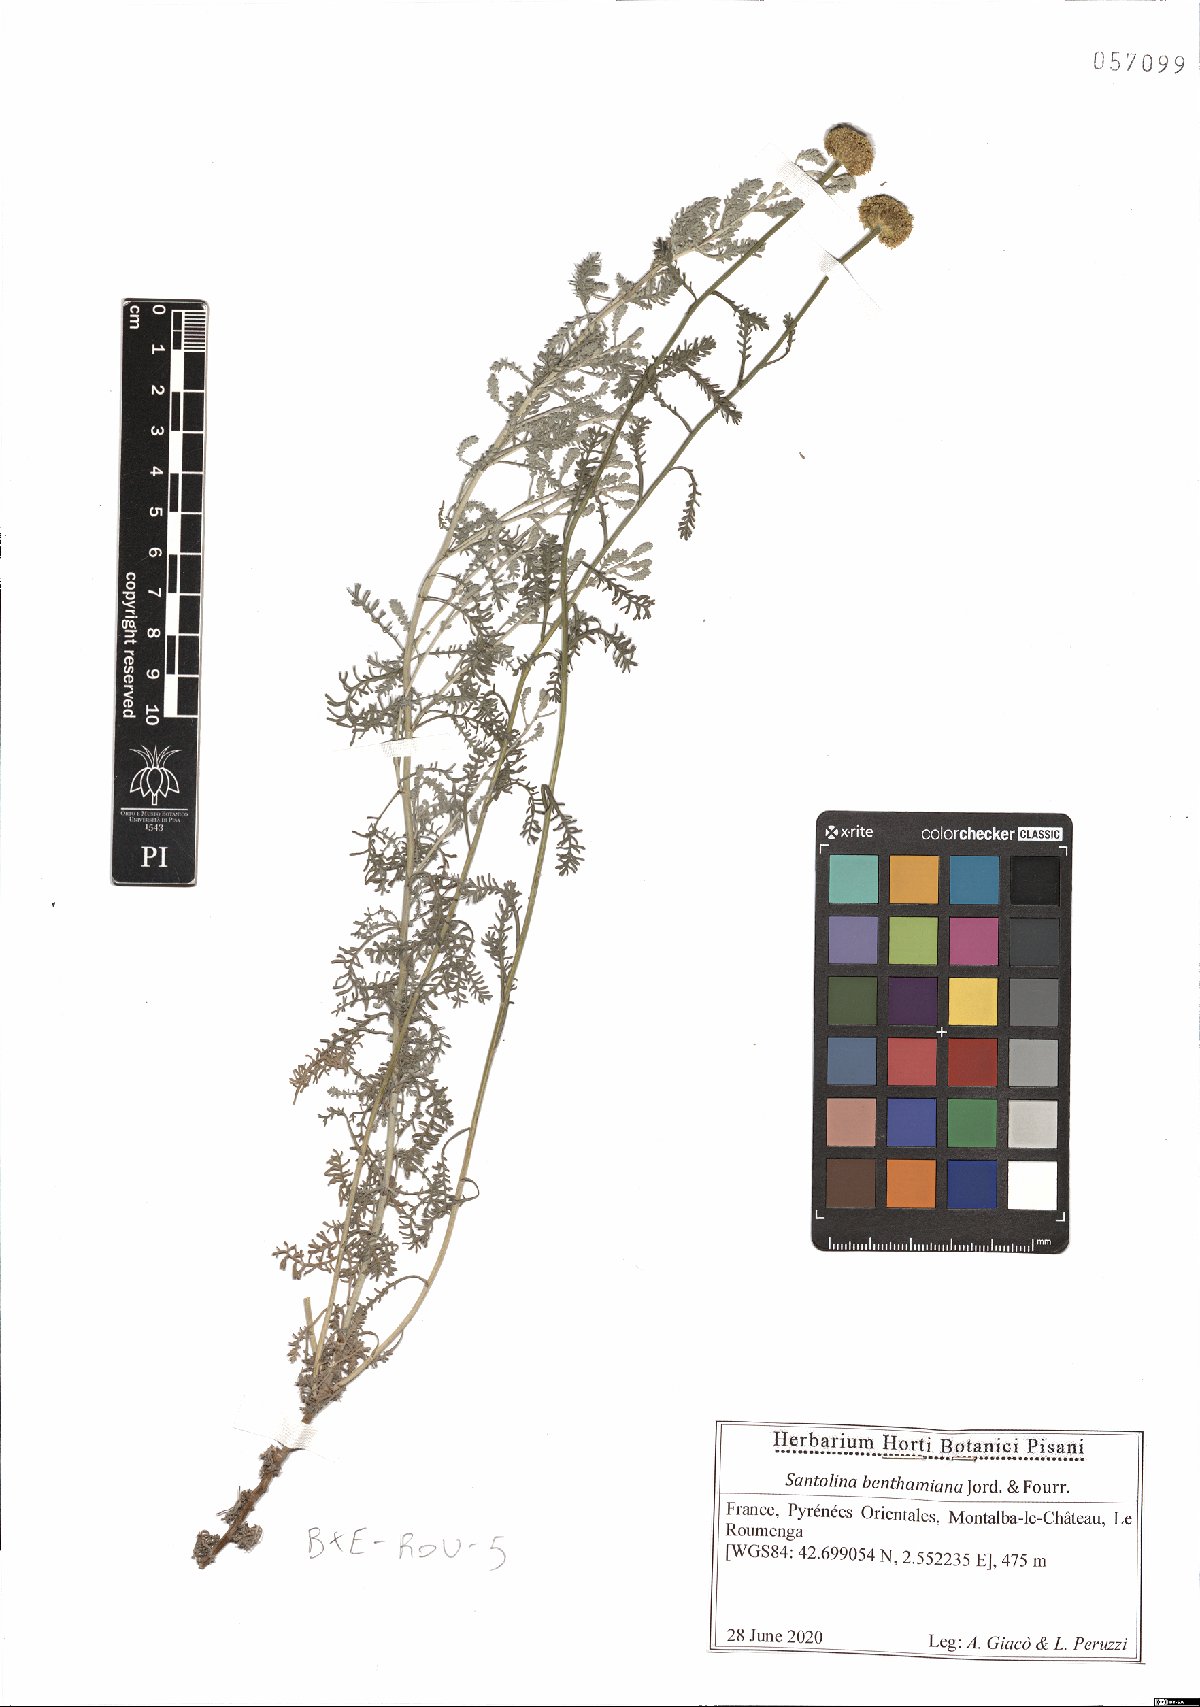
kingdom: Plantae
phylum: Tracheophyta
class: Magnoliopsida
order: Asterales
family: Asteraceae
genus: Santolina
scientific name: Santolina benthamiana
